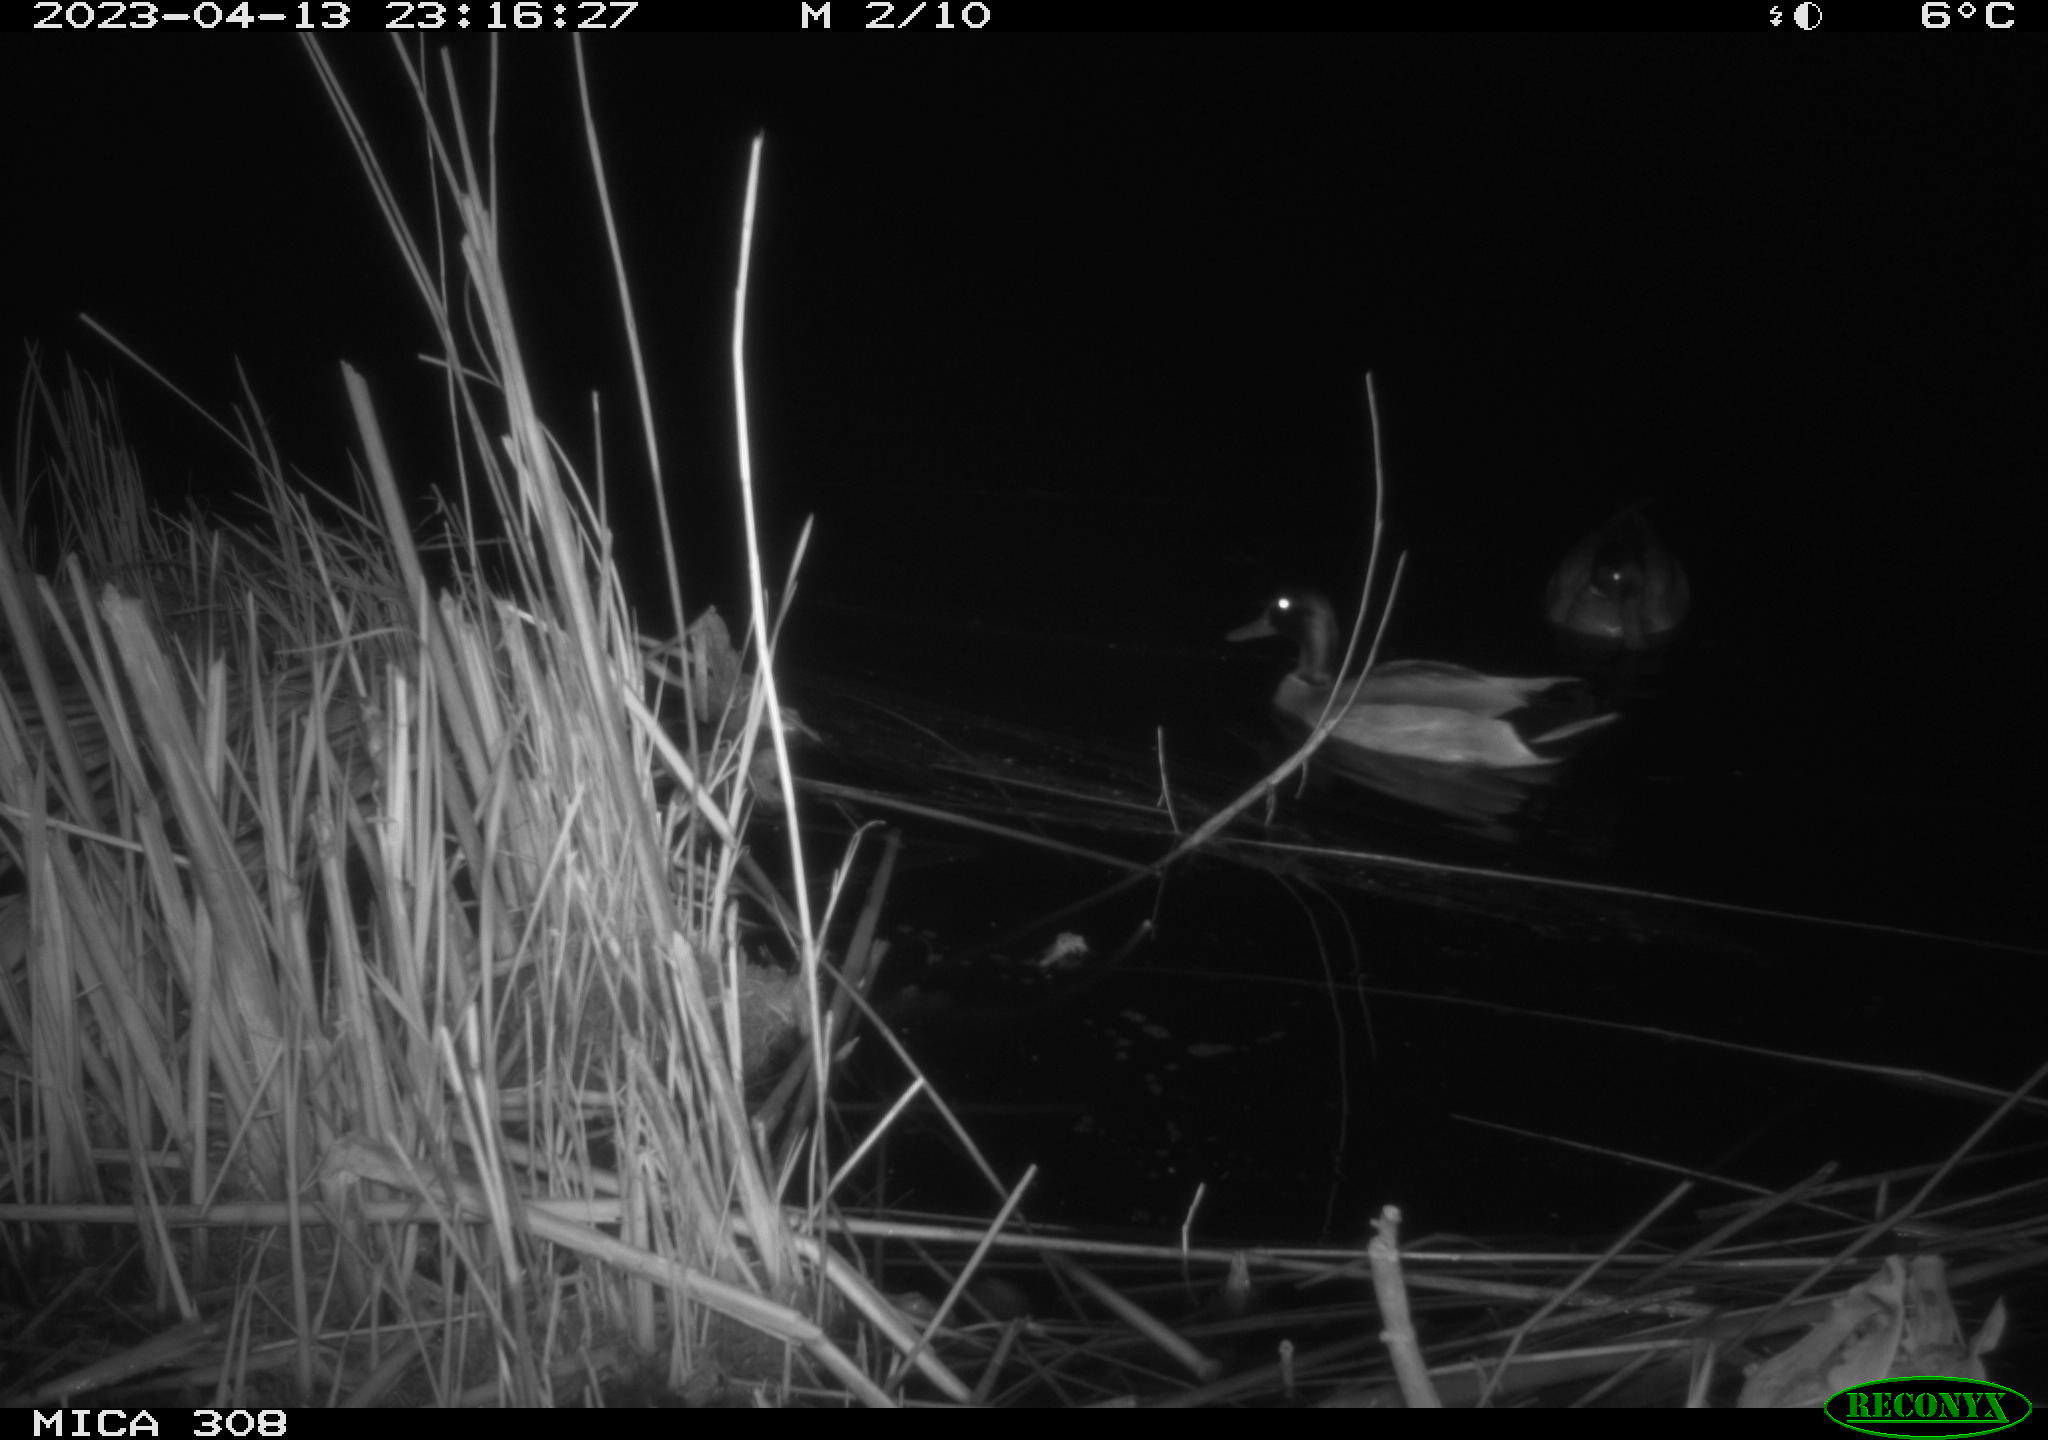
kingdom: Animalia
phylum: Chordata
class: Aves
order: Anseriformes
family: Anatidae
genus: Anas
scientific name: Anas
